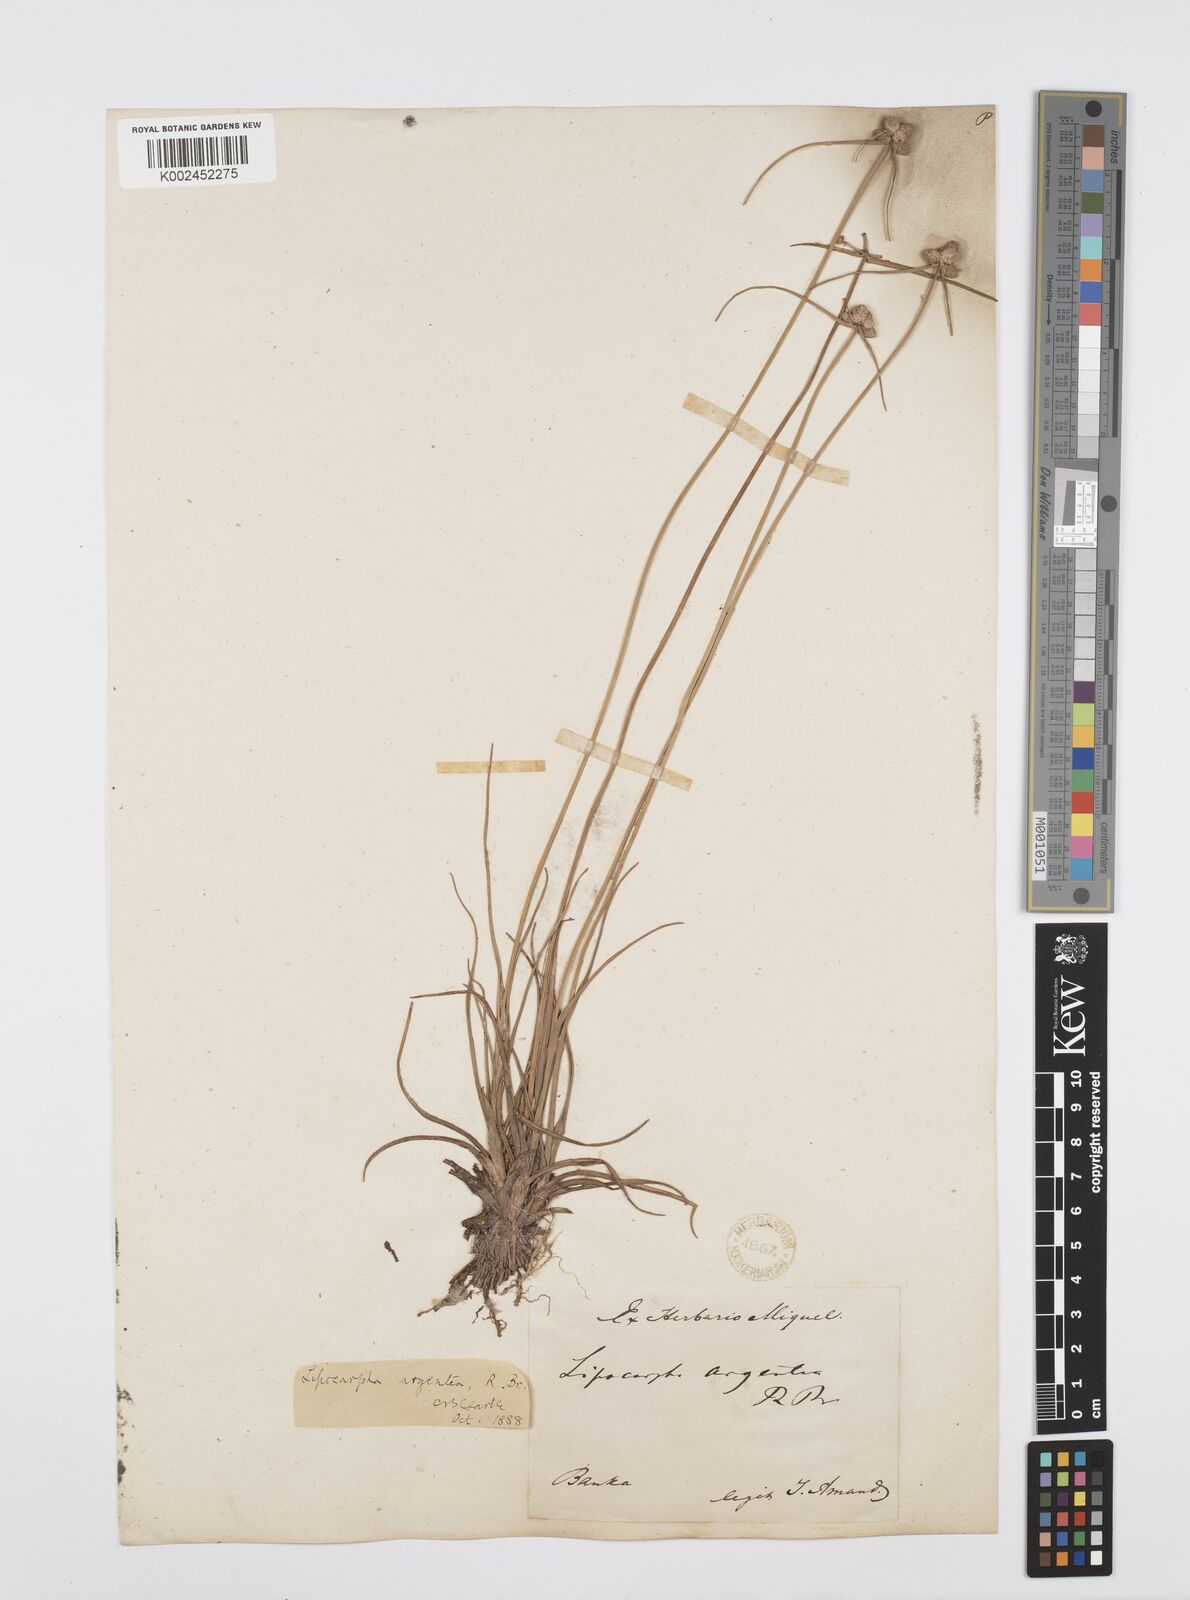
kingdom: Plantae
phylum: Tracheophyta
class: Liliopsida
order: Poales
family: Cyperaceae
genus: Cyperus
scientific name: Cyperus
